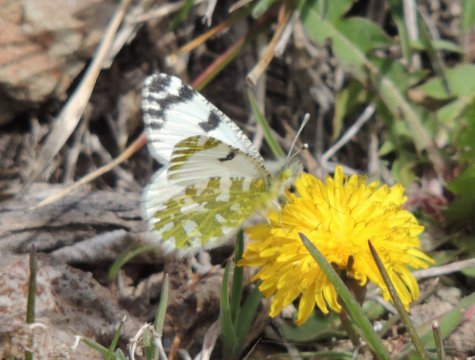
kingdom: Animalia
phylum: Arthropoda
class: Insecta
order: Lepidoptera
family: Pieridae
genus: Euchloe
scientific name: Euchloe lotta
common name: Desert Marble
